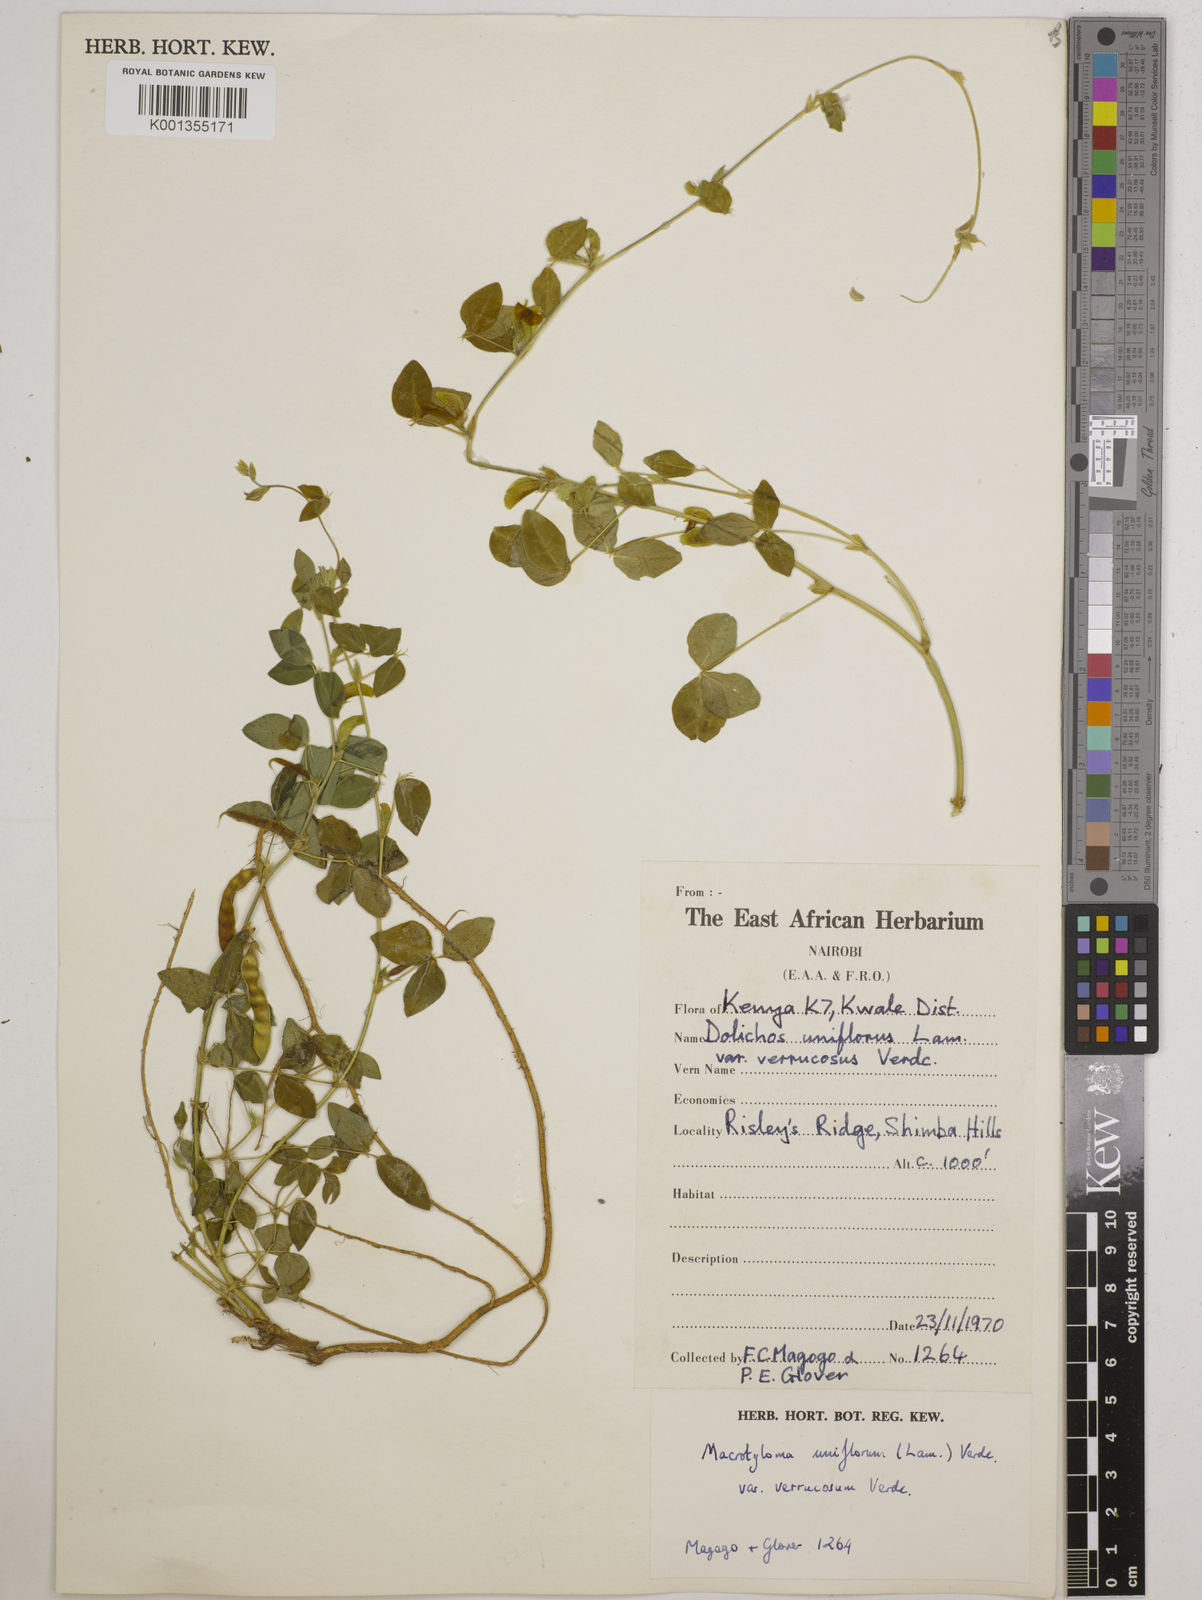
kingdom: Plantae
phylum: Tracheophyta
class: Magnoliopsida
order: Fabales
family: Fabaceae
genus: Macrotyloma
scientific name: Macrotyloma
